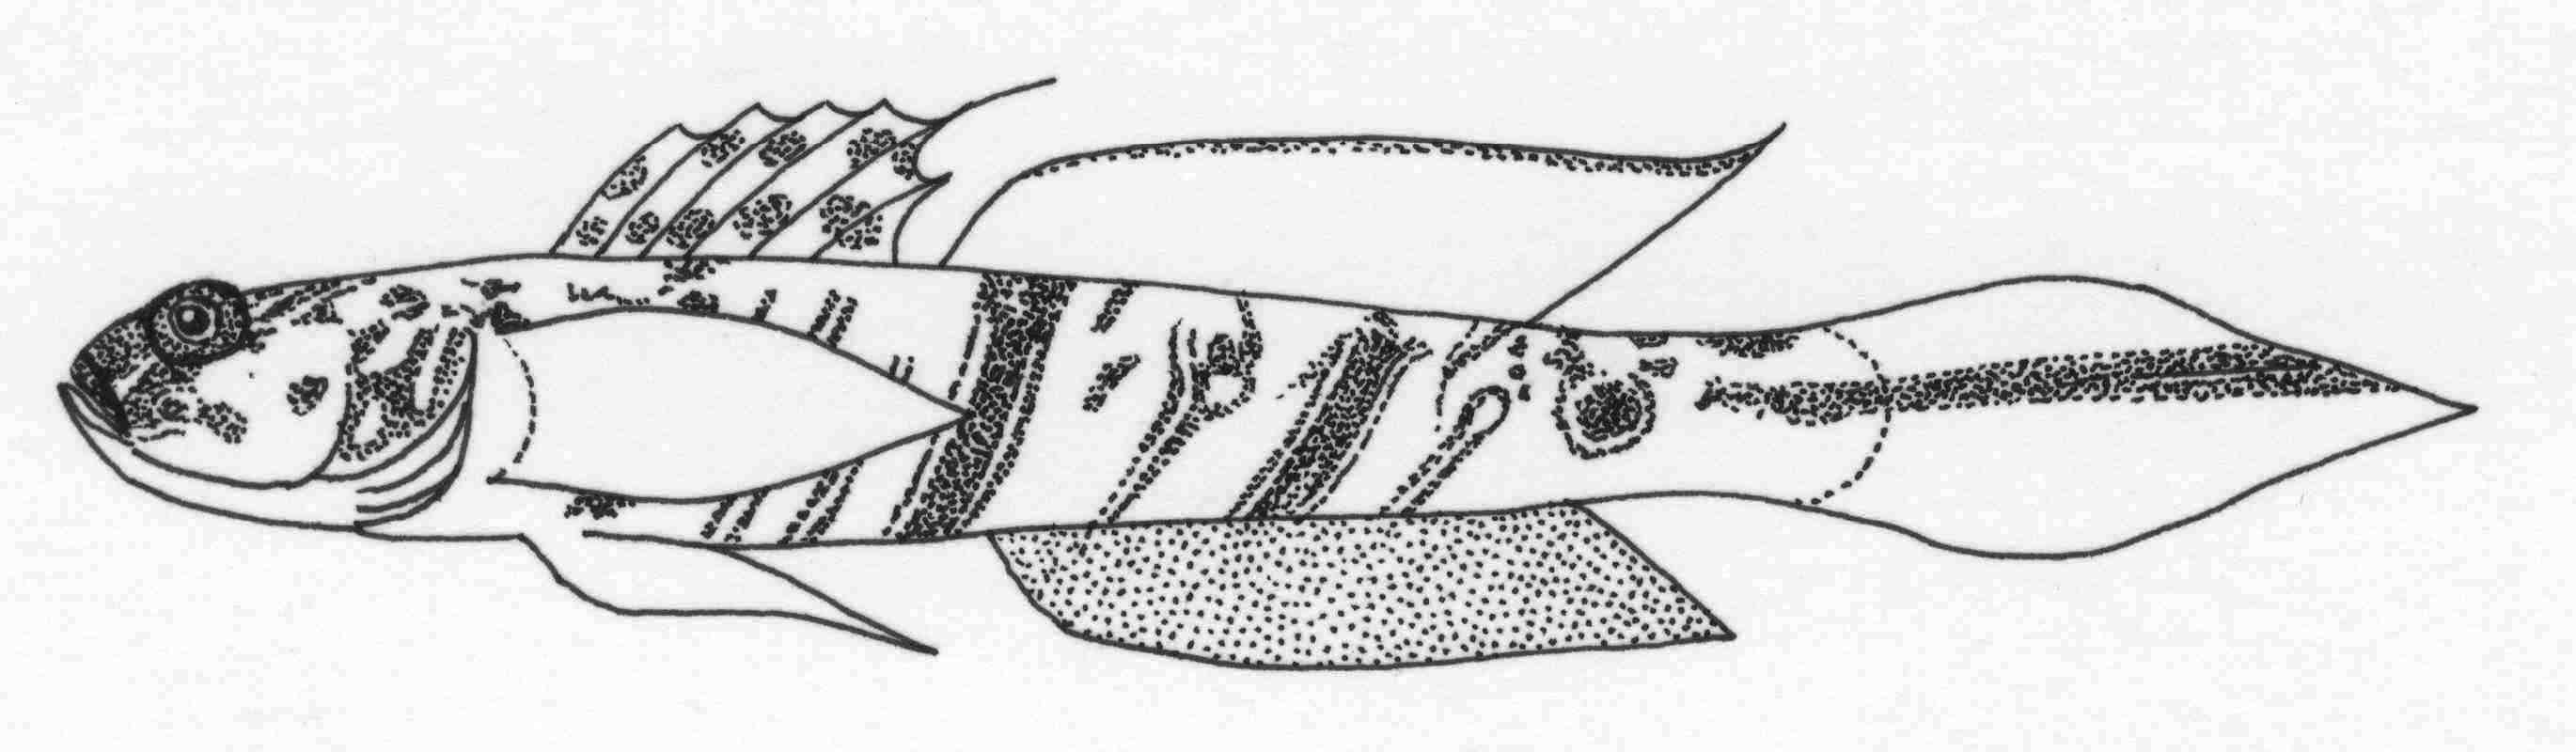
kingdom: Animalia
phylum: Chordata
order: Perciformes
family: Gobiidae
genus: Vanderhorstia
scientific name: Vanderhorstia delagoae
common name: Candystick goby
